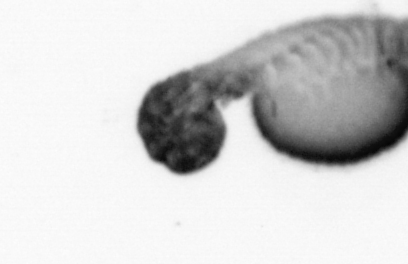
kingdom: Animalia
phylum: Annelida
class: Polychaeta
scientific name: Polychaeta
